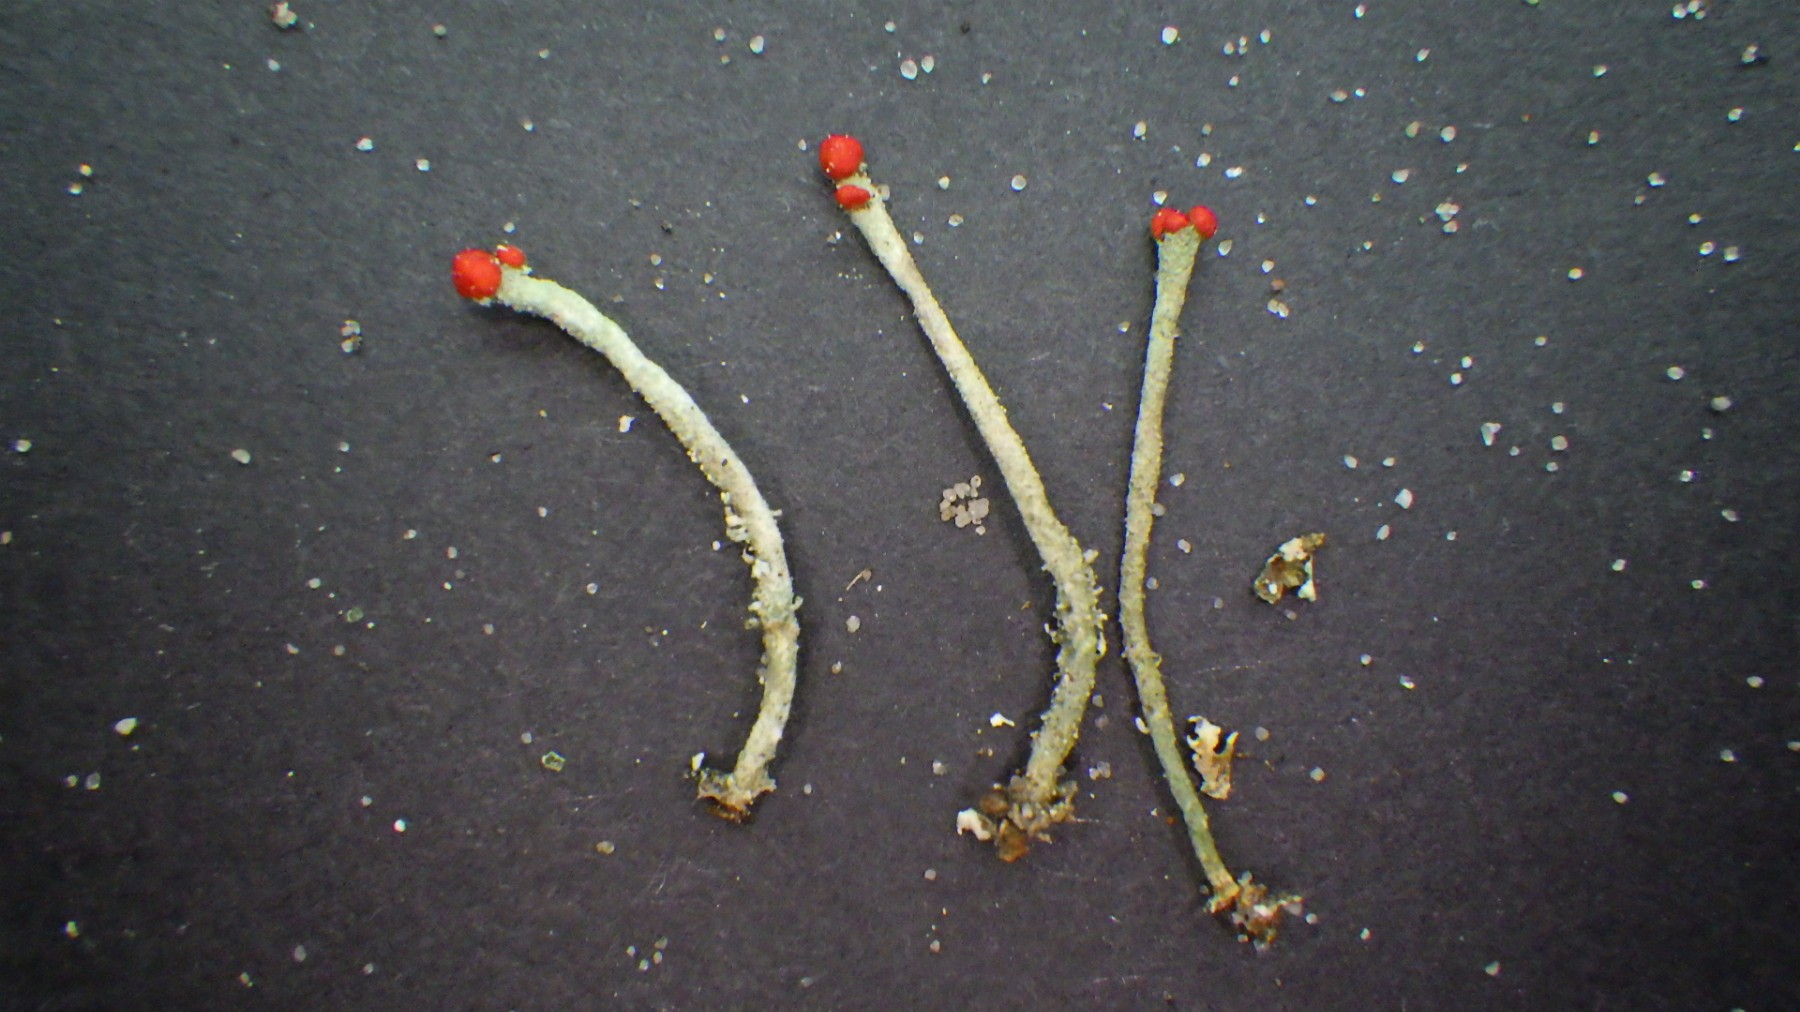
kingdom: Fungi
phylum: Ascomycota
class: Lecanoromycetes
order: Lecanorales
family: Cladoniaceae
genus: Cladonia
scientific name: Cladonia floerkeana
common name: lakrød bægerlav
